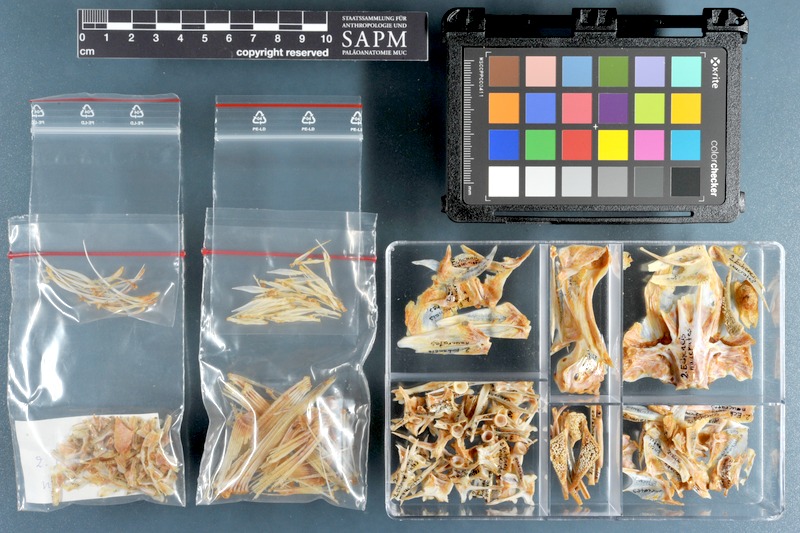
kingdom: Animalia
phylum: Chordata
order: Perciformes
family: Echeneidae
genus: Echeneis
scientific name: Echeneis naucrates
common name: Sharksucker
